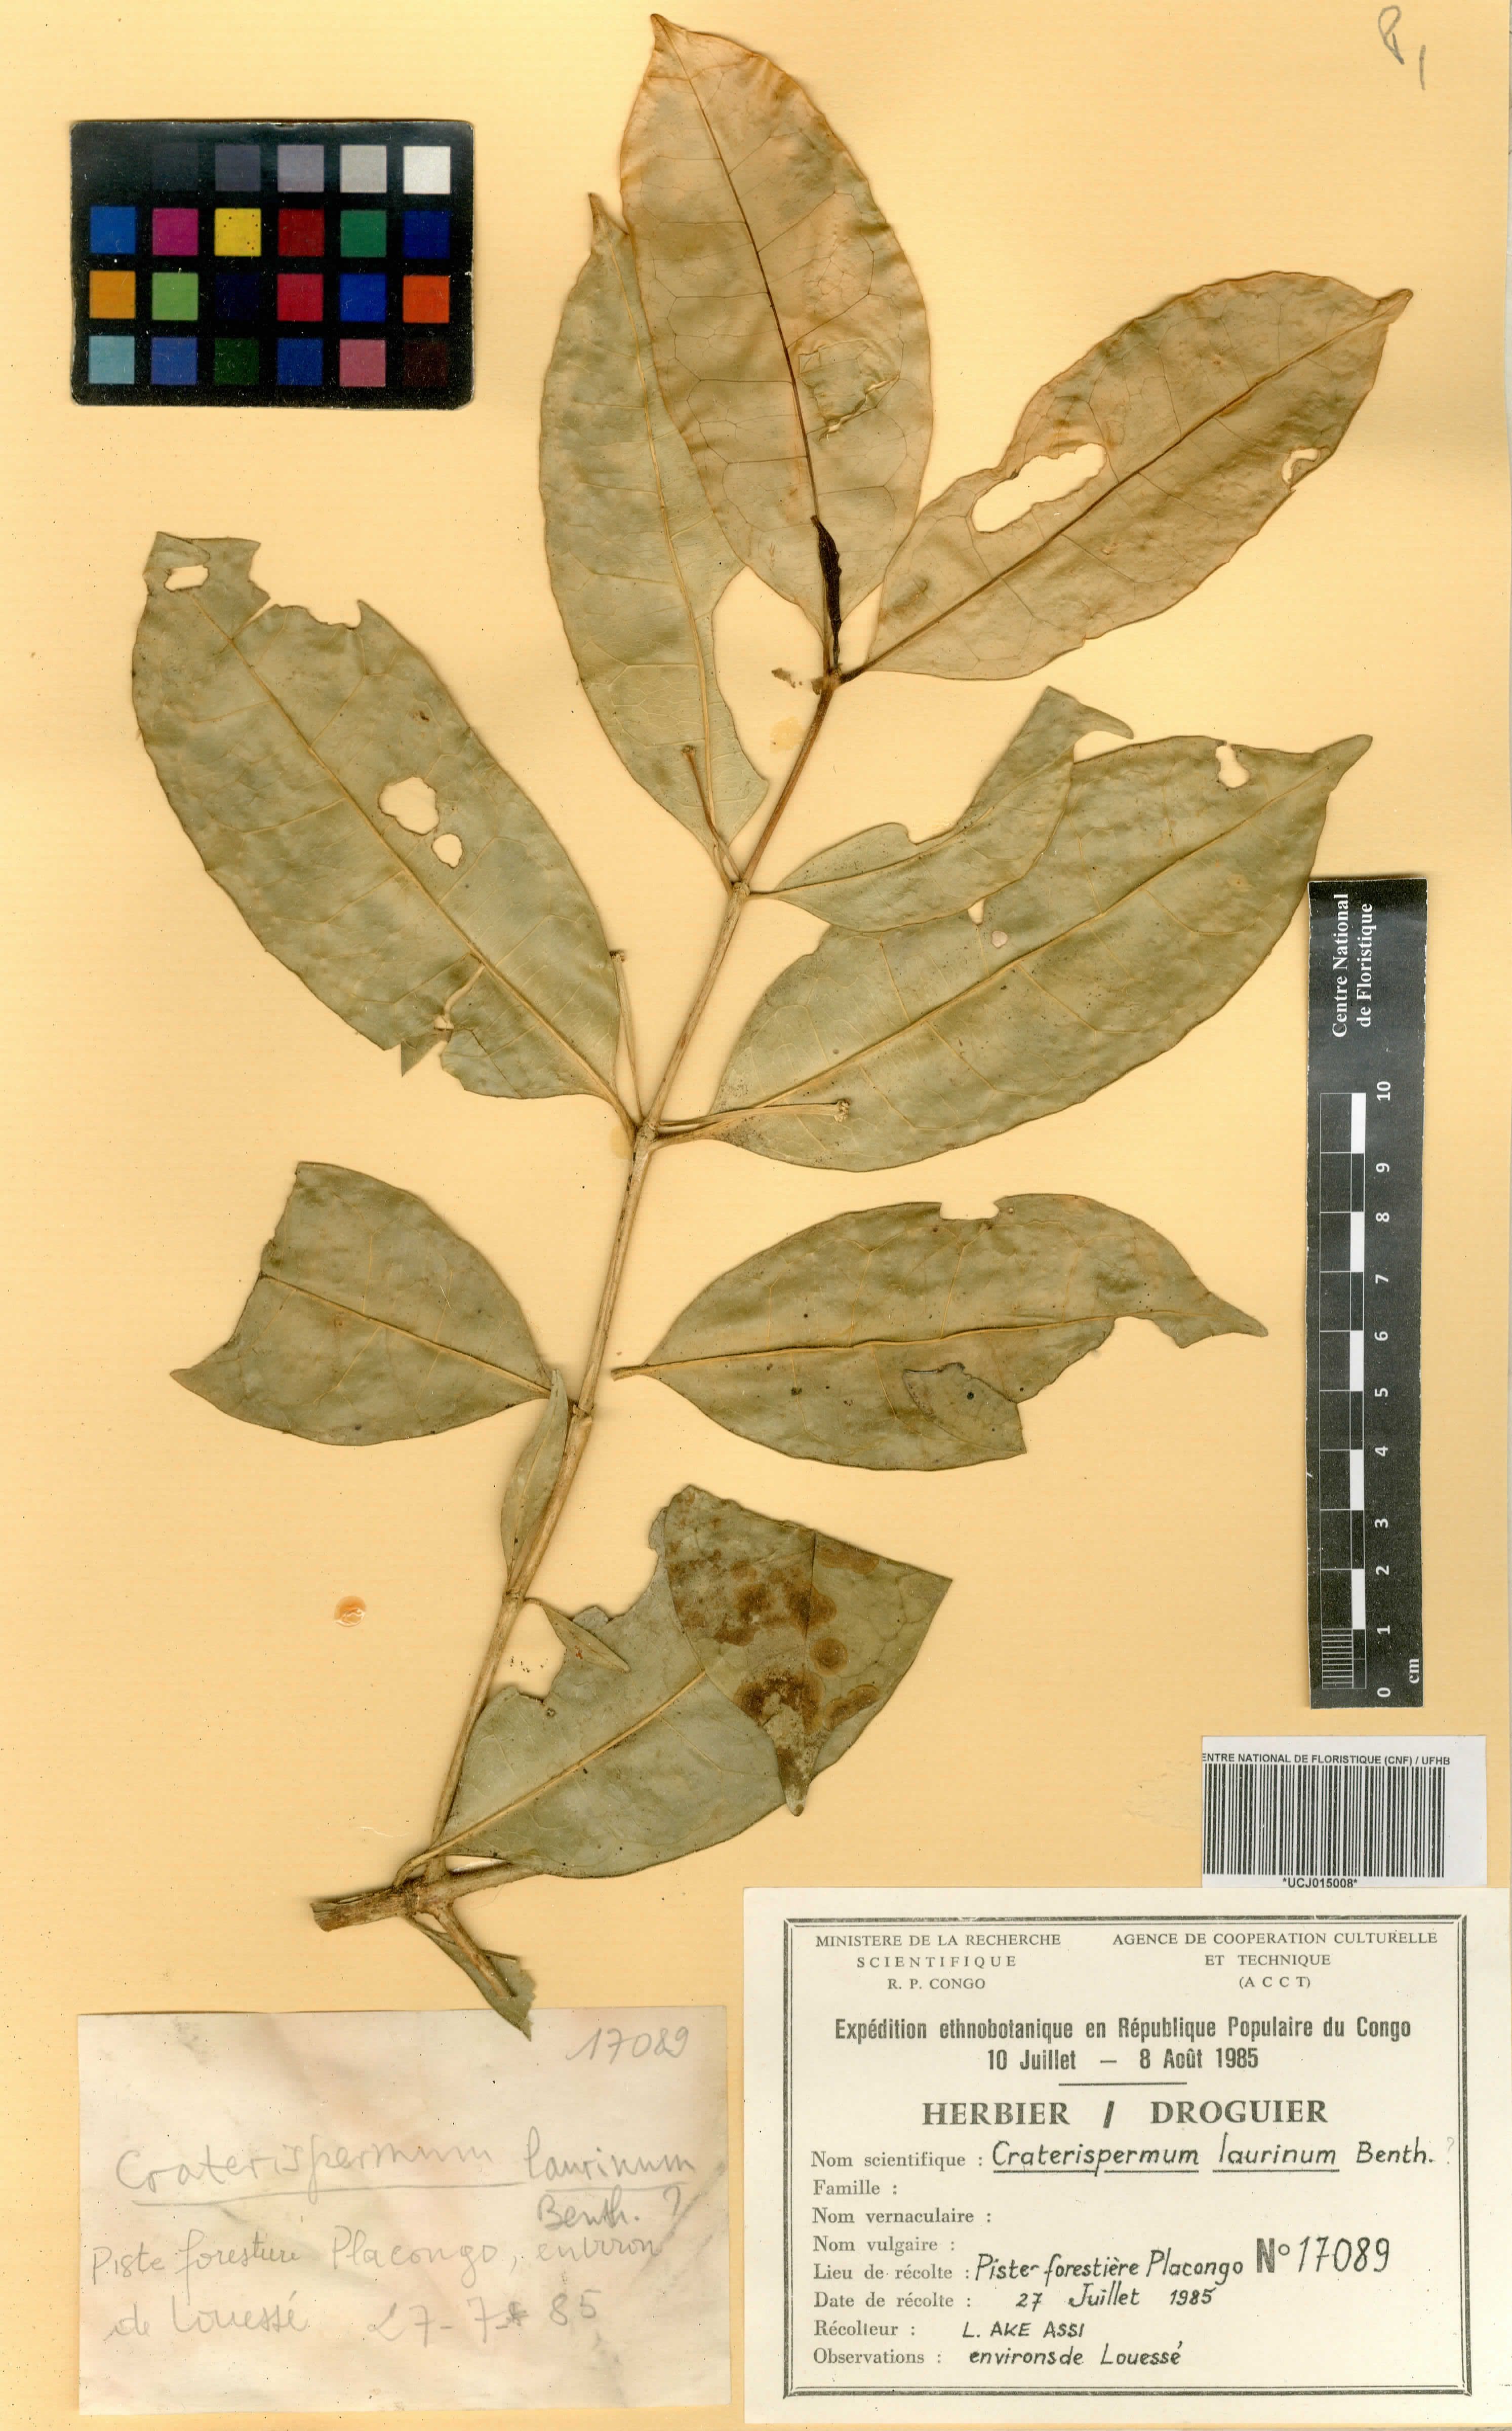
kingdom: Plantae
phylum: Tracheophyta
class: Magnoliopsida
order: Gentianales
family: Rubiaceae
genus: Craterispermum
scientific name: Craterispermum laurinum
